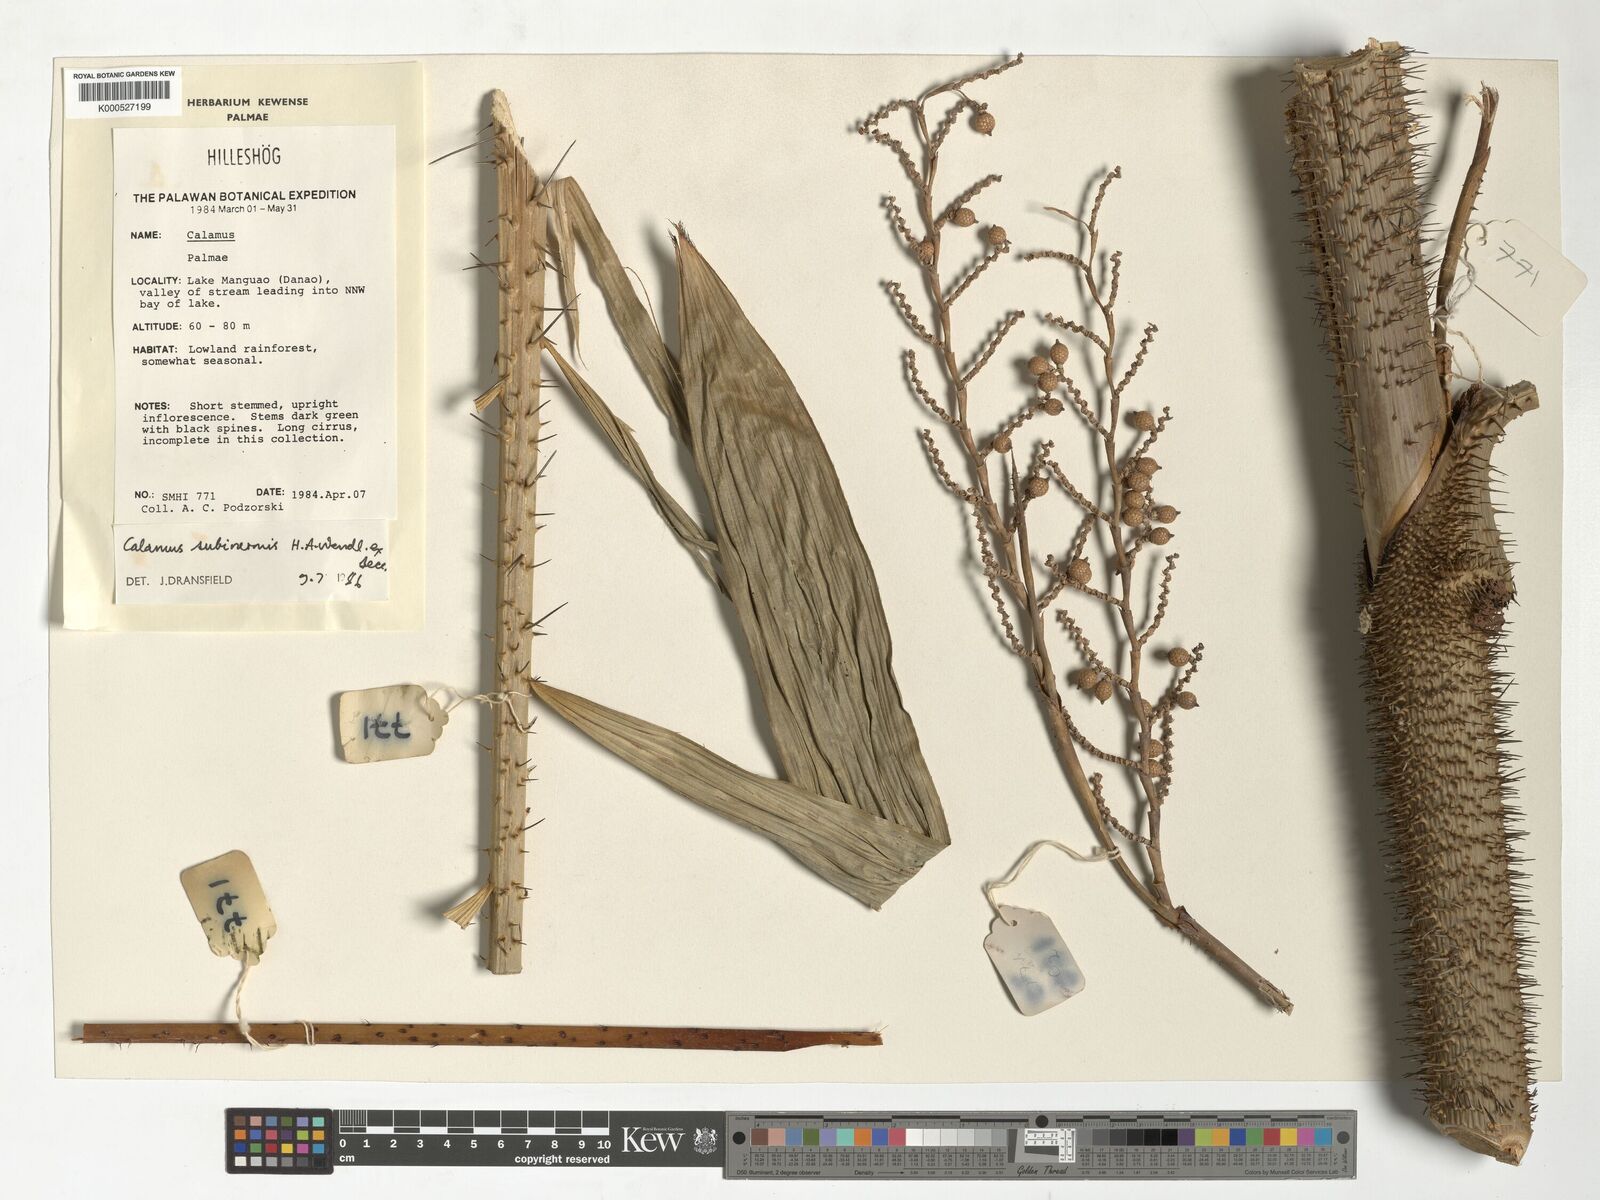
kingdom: Plantae
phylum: Tracheophyta
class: Liliopsida
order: Arecales
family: Arecaceae
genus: Calamus
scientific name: Calamus moseleyanus
